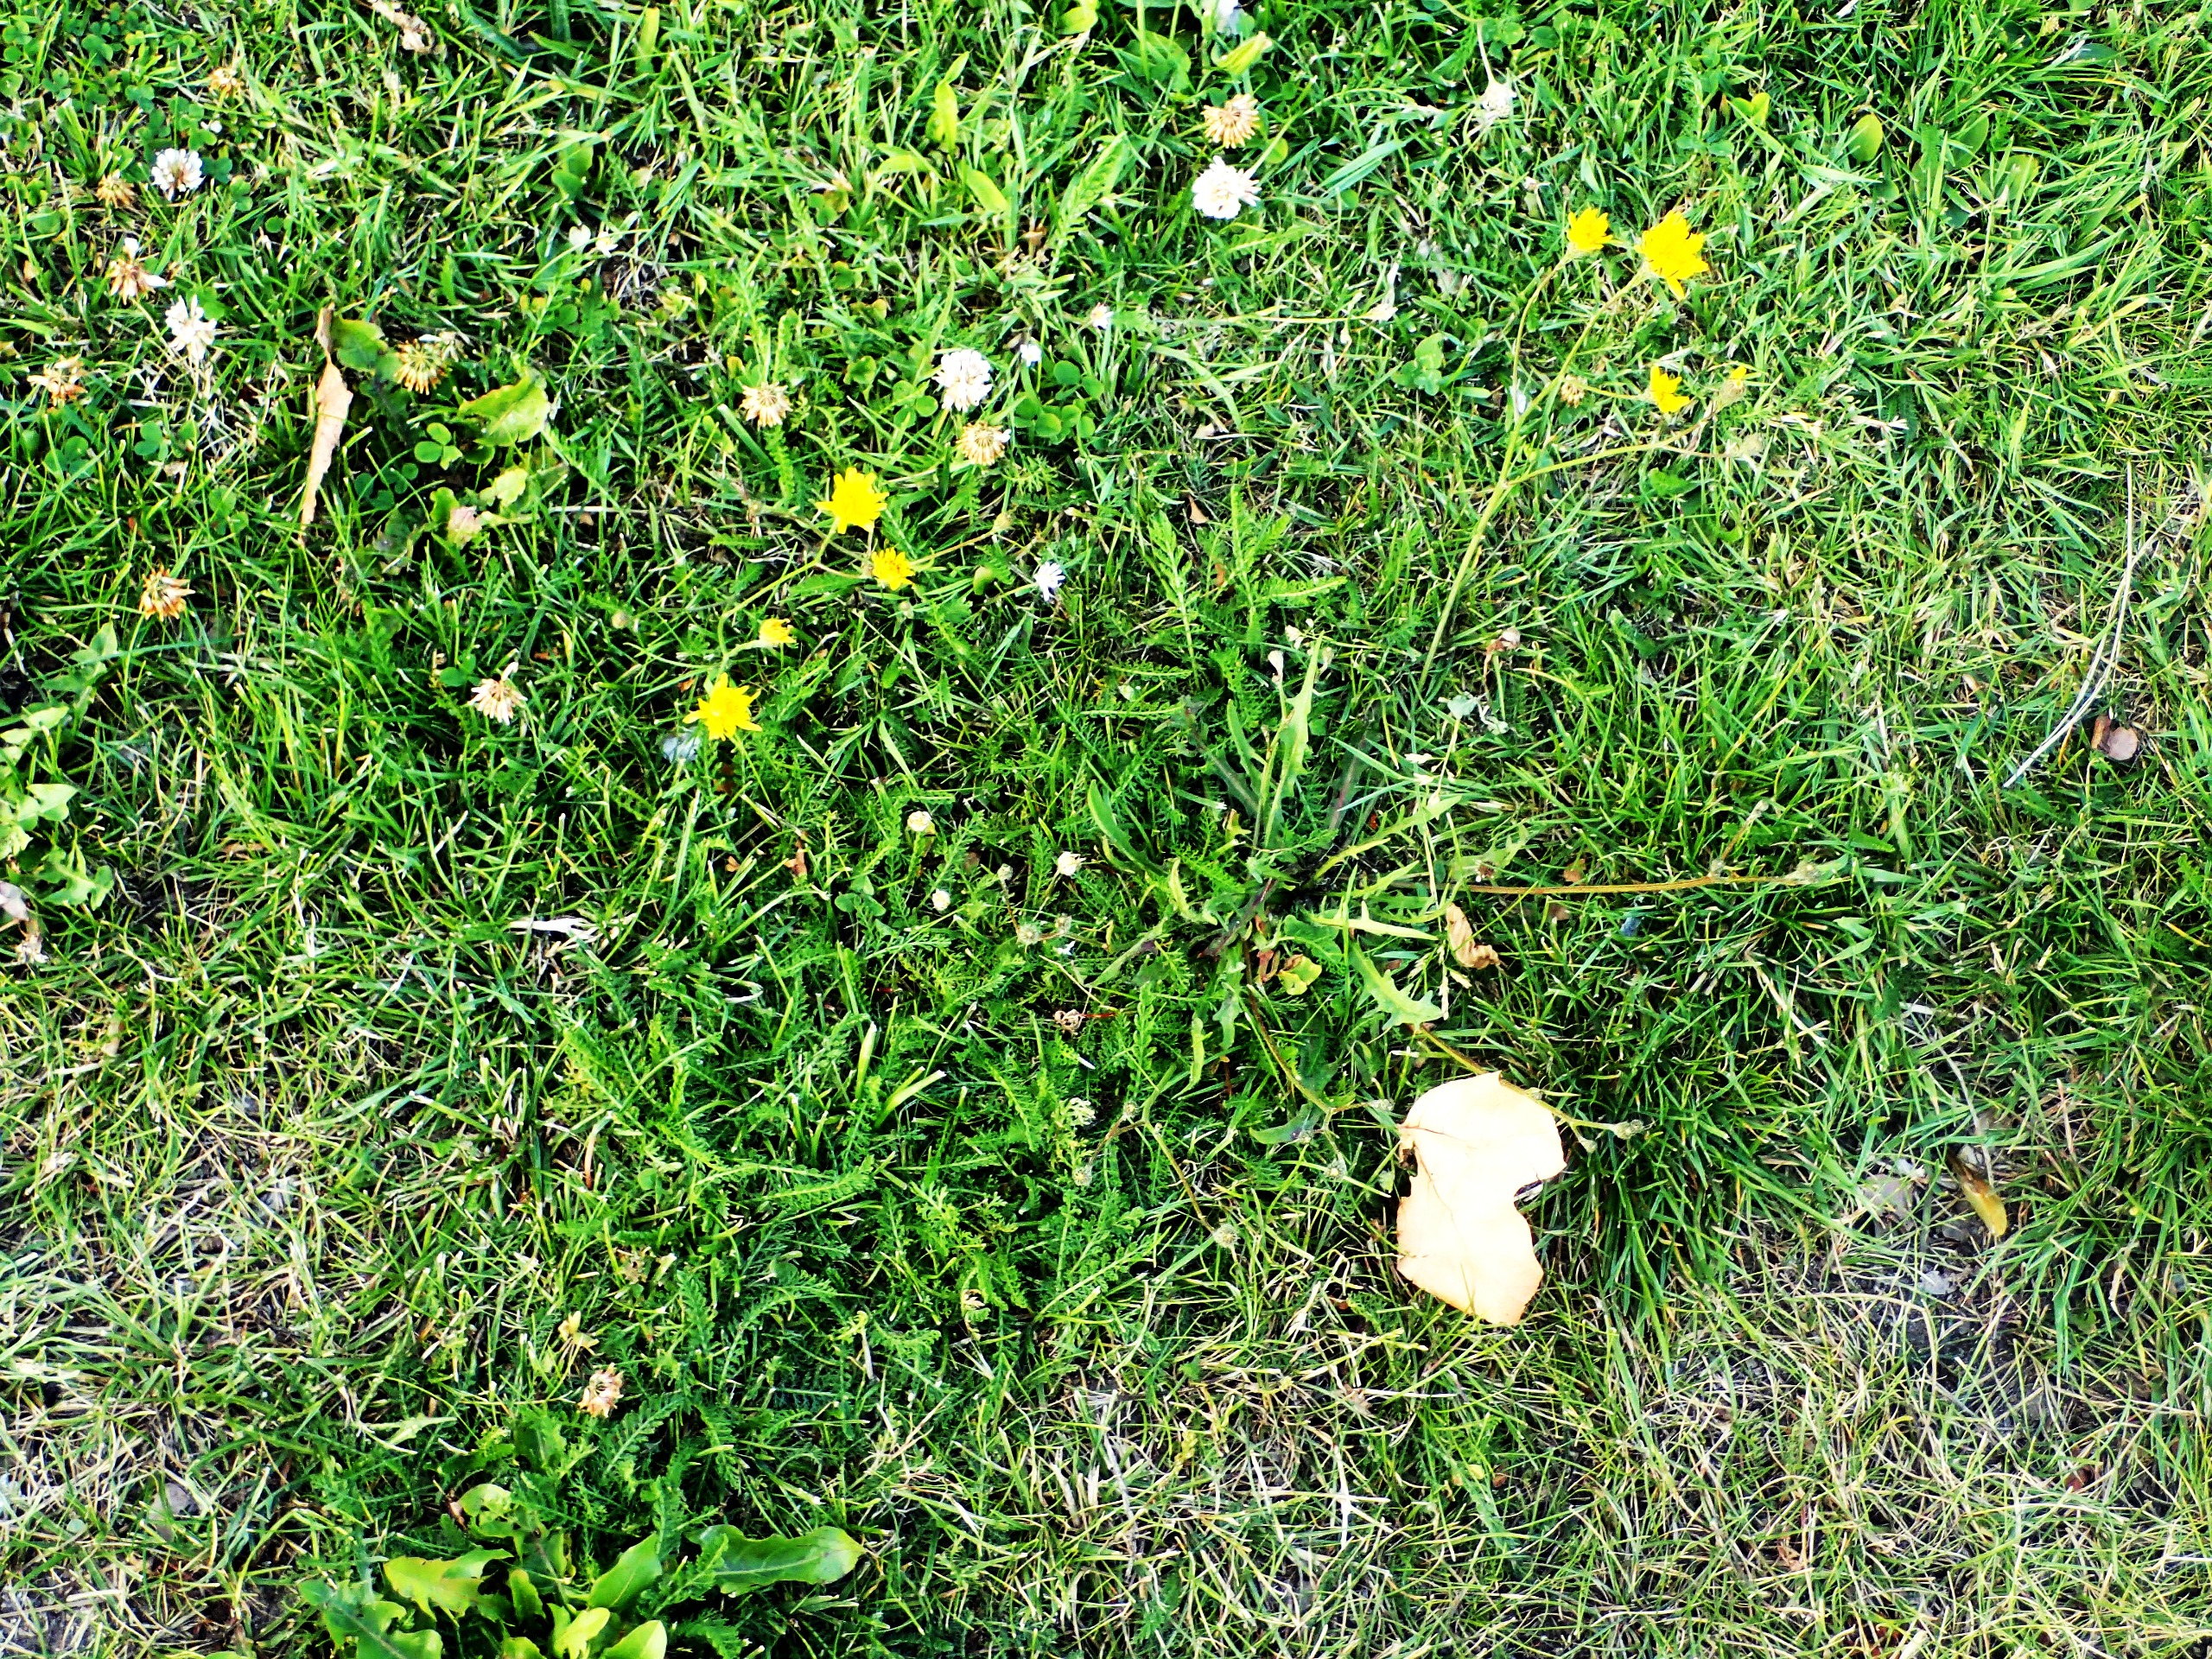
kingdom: Plantae
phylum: Tracheophyta
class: Magnoliopsida
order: Asterales
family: Asteraceae
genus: Scorzoneroides
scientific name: Scorzoneroides autumnalis
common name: Høst-borst
